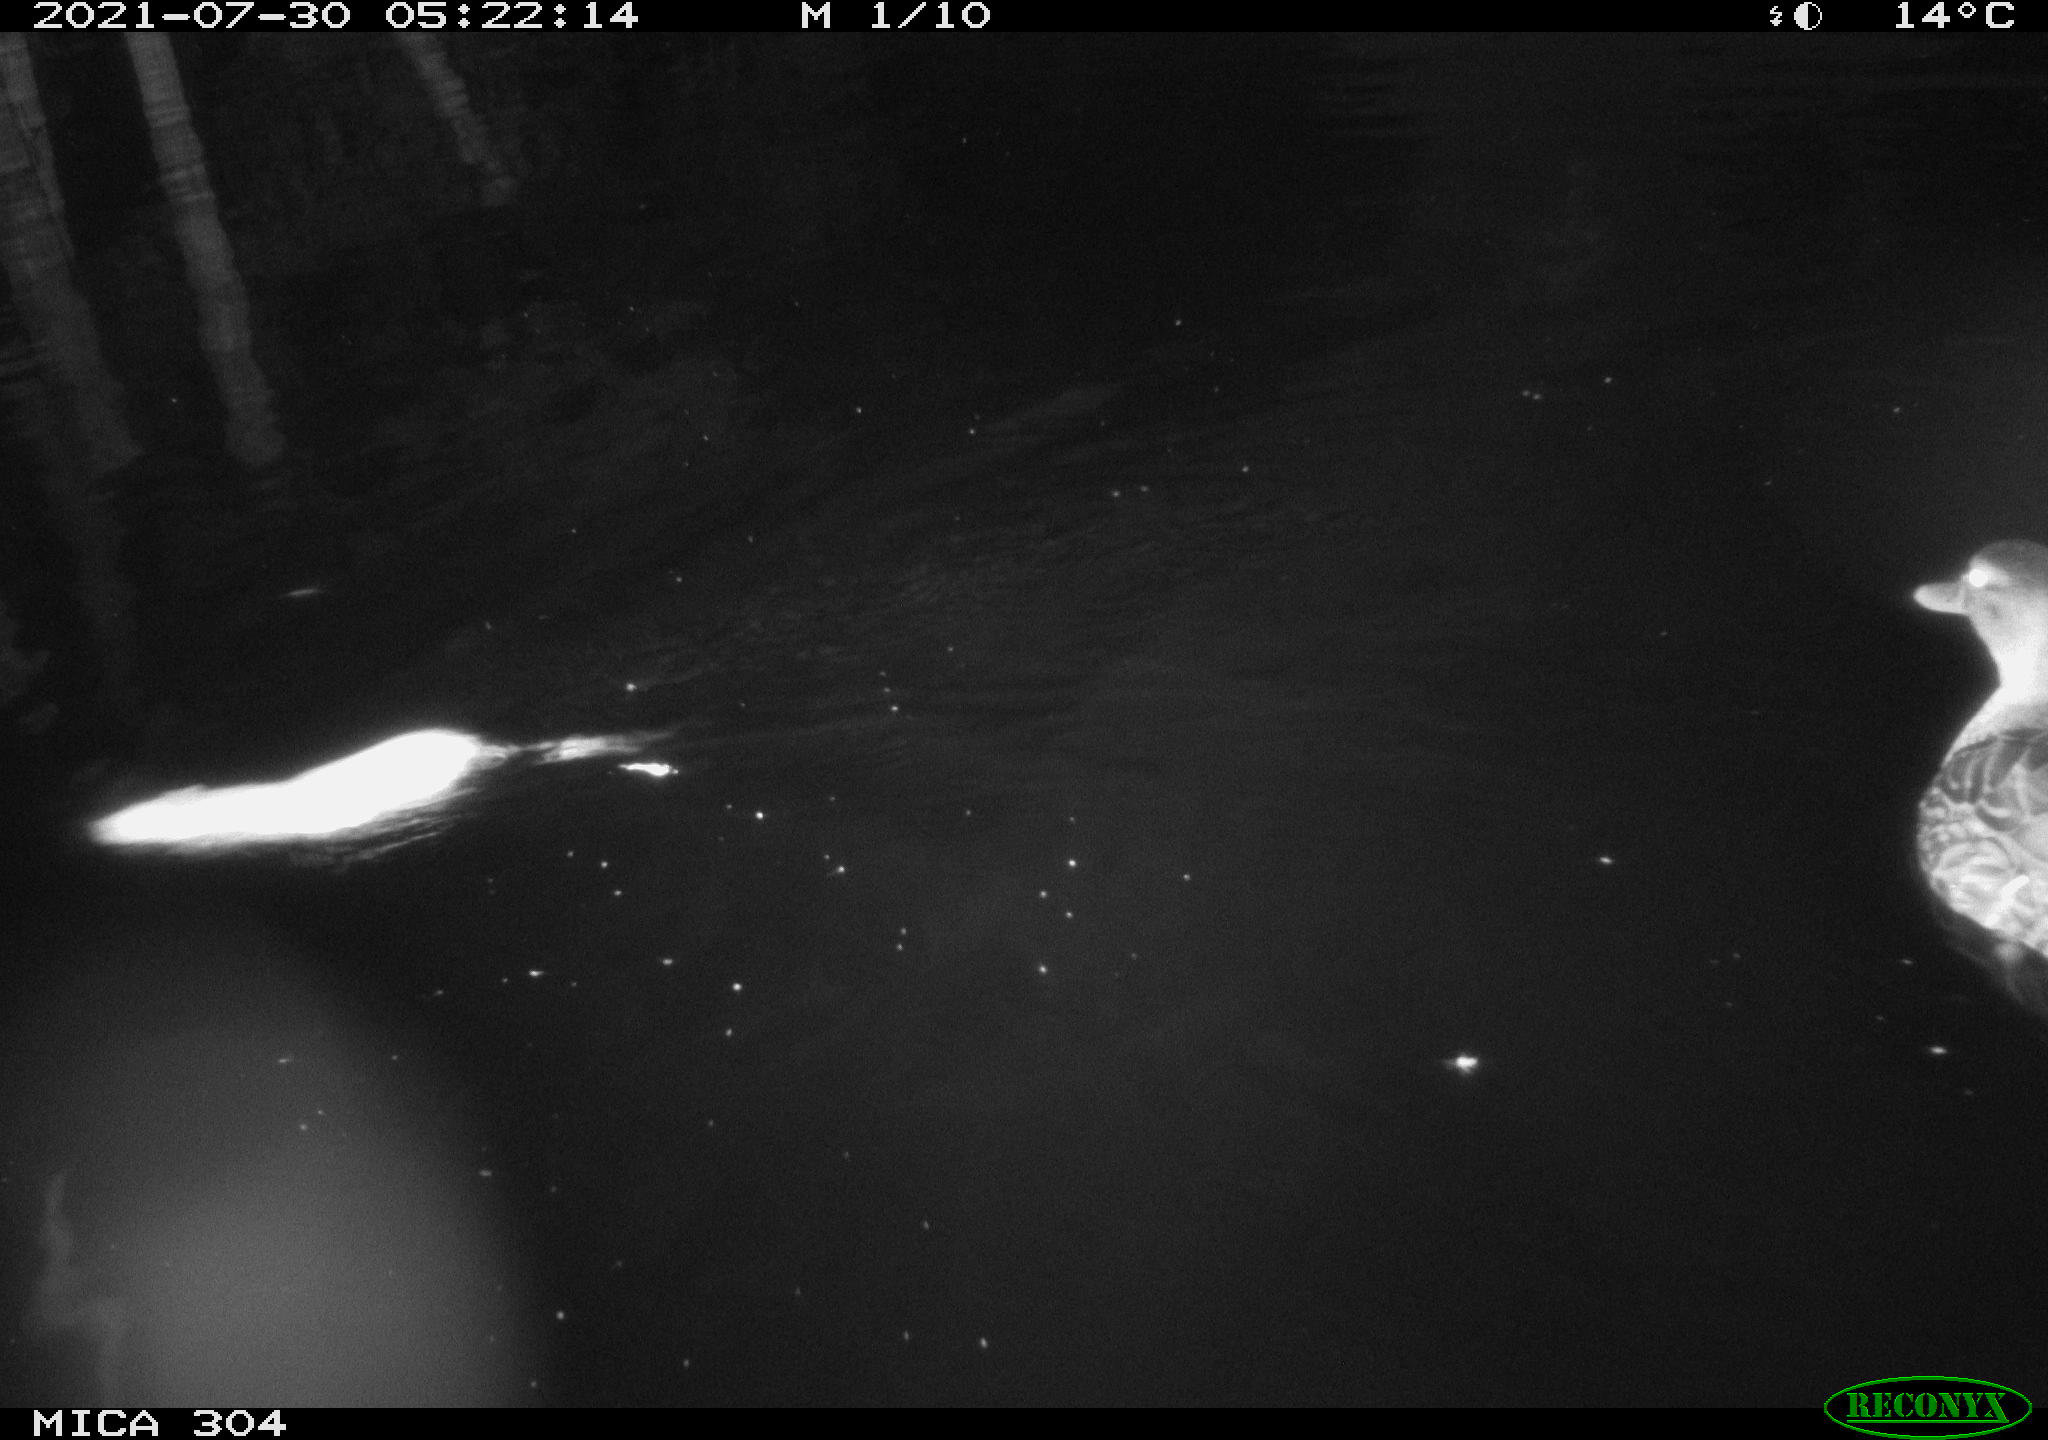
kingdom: Animalia
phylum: Chordata
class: Aves
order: Anseriformes
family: Anatidae
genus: Mareca
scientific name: Mareca strepera
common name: Gadwall
